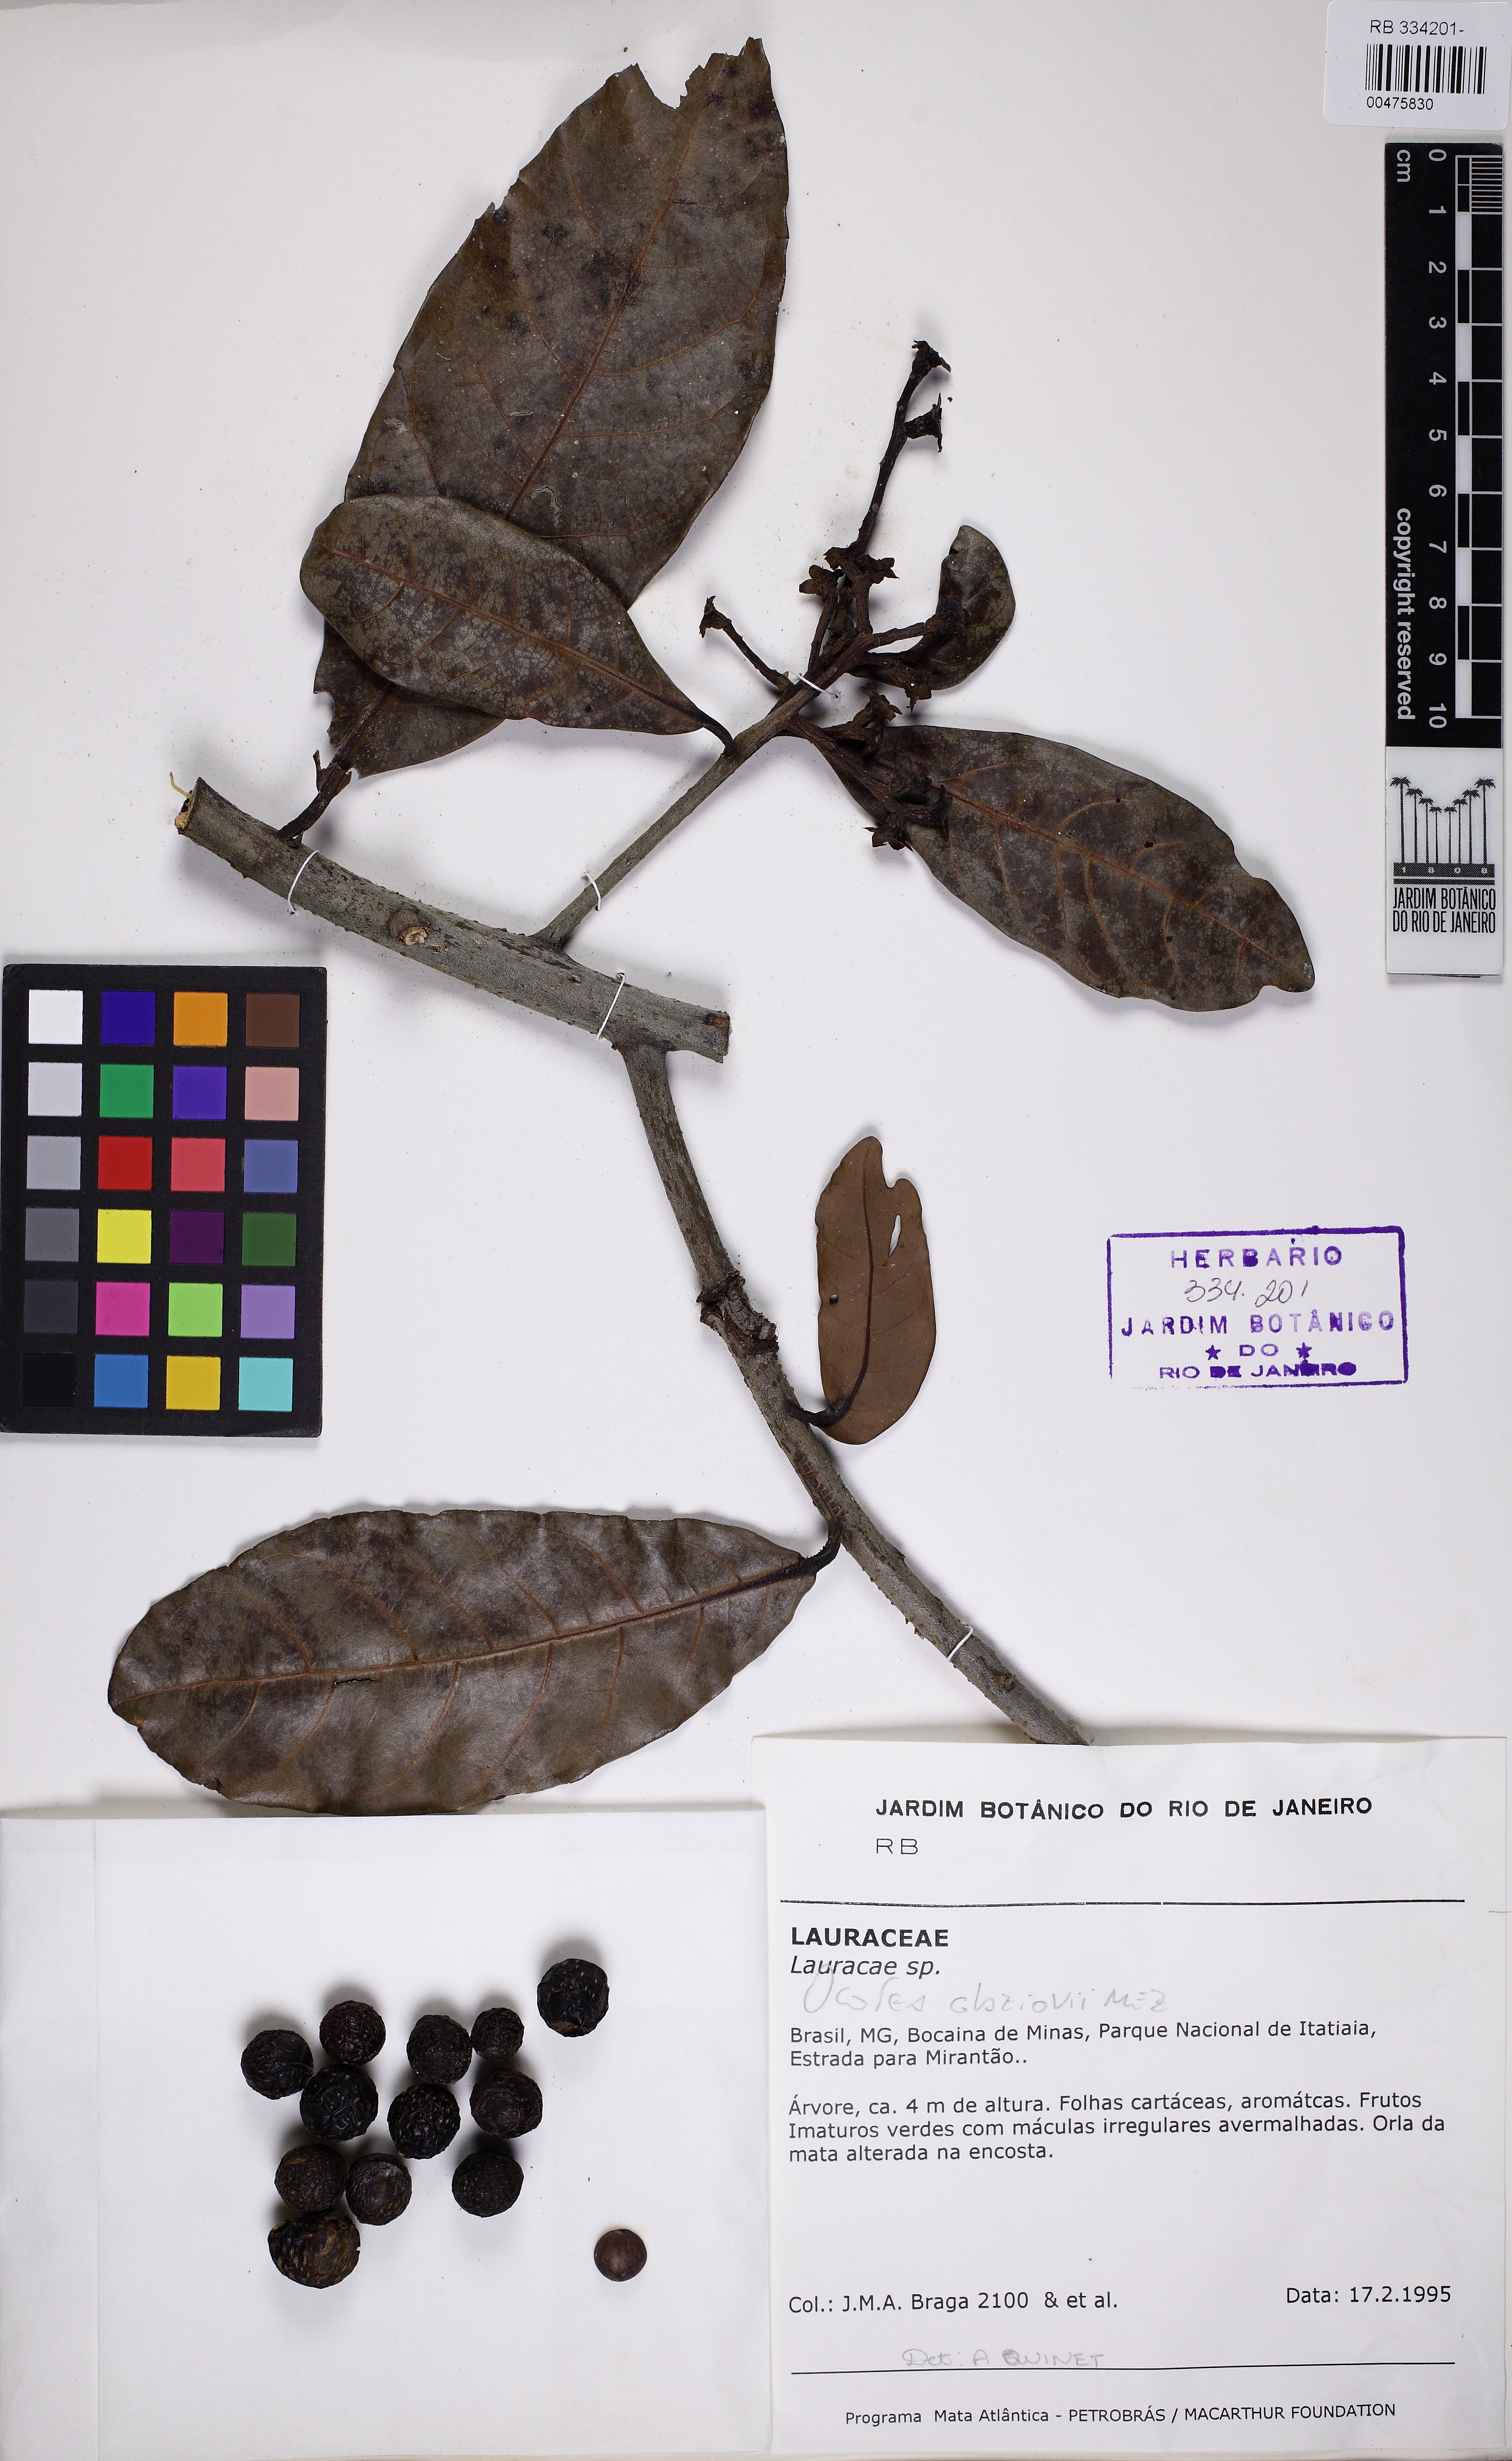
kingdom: Plantae
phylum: Tracheophyta
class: Magnoliopsida
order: Laurales
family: Lauraceae
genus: Ocotea
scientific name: Ocotea glaziovii
